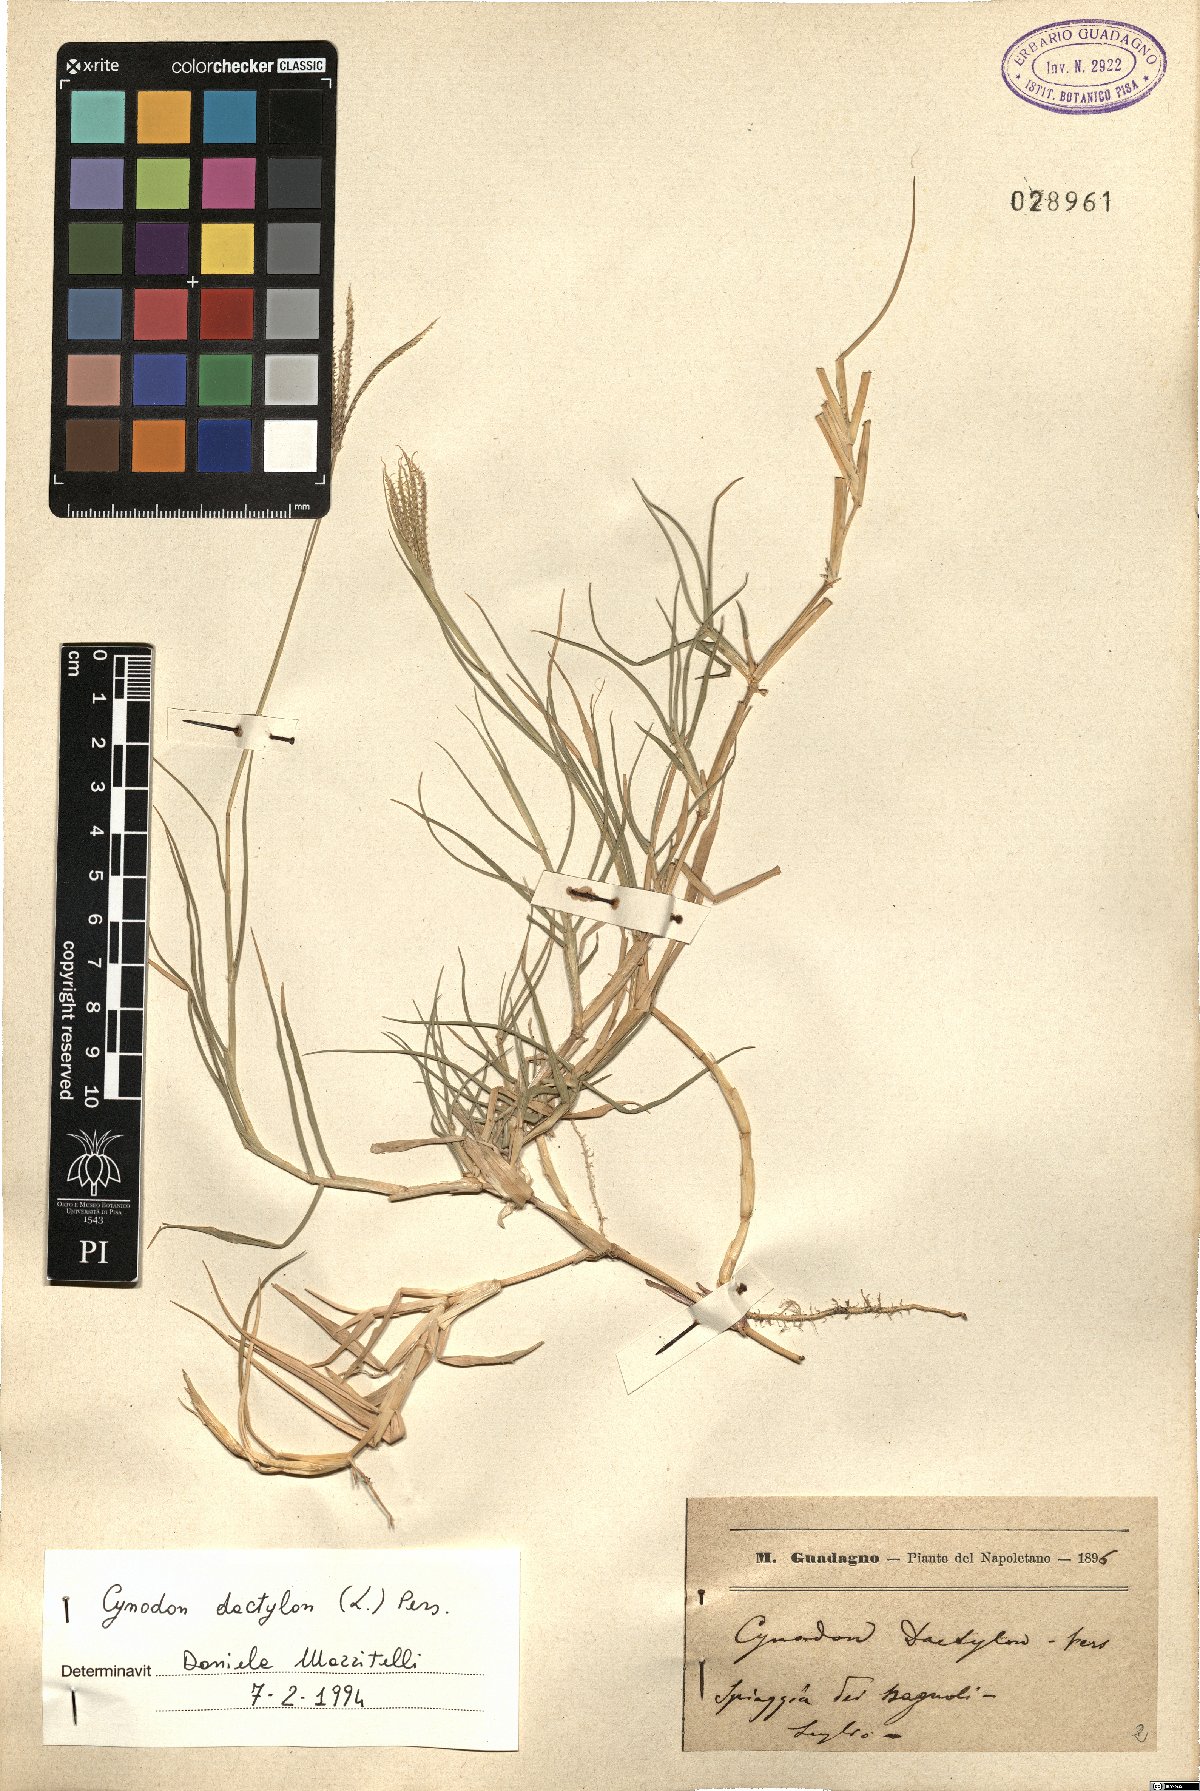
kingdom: Plantae
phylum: Tracheophyta
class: Liliopsida
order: Poales
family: Poaceae
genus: Cynodon
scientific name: Cynodon dactylon
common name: Bermuda grass
